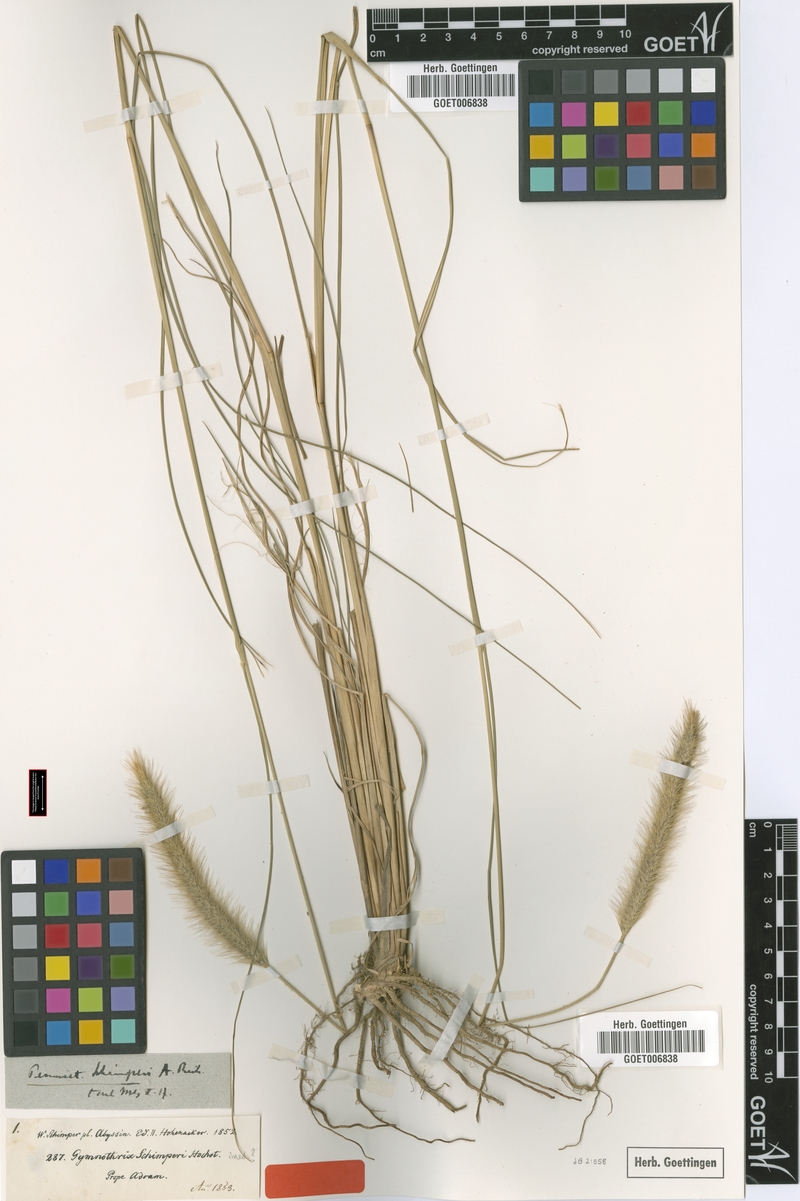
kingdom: Plantae
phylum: Tracheophyta
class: Liliopsida
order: Poales
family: Poaceae
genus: Cenchrus
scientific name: Cenchrus sphacelatus
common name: Bulgras
